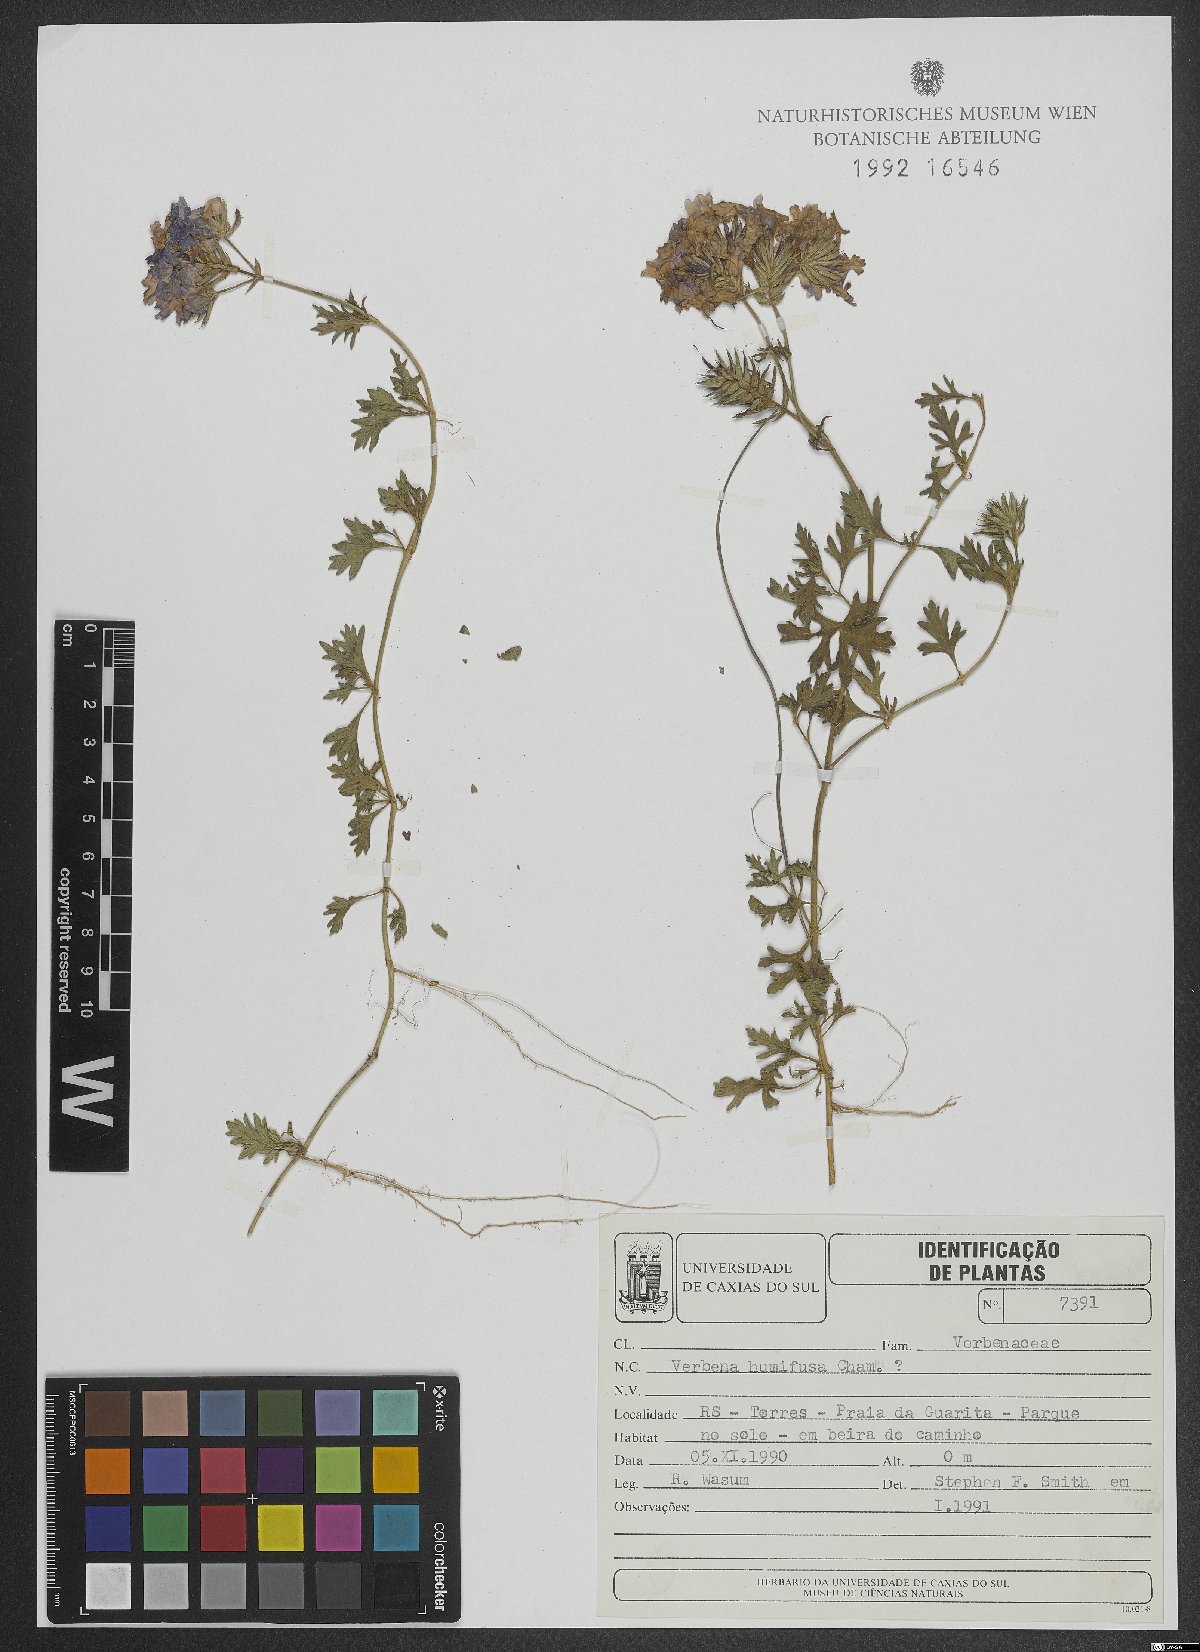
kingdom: Plantae
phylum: Tracheophyta
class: Magnoliopsida
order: Lamiales
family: Verbenaceae
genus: Verbena
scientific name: Verbena humifusa
